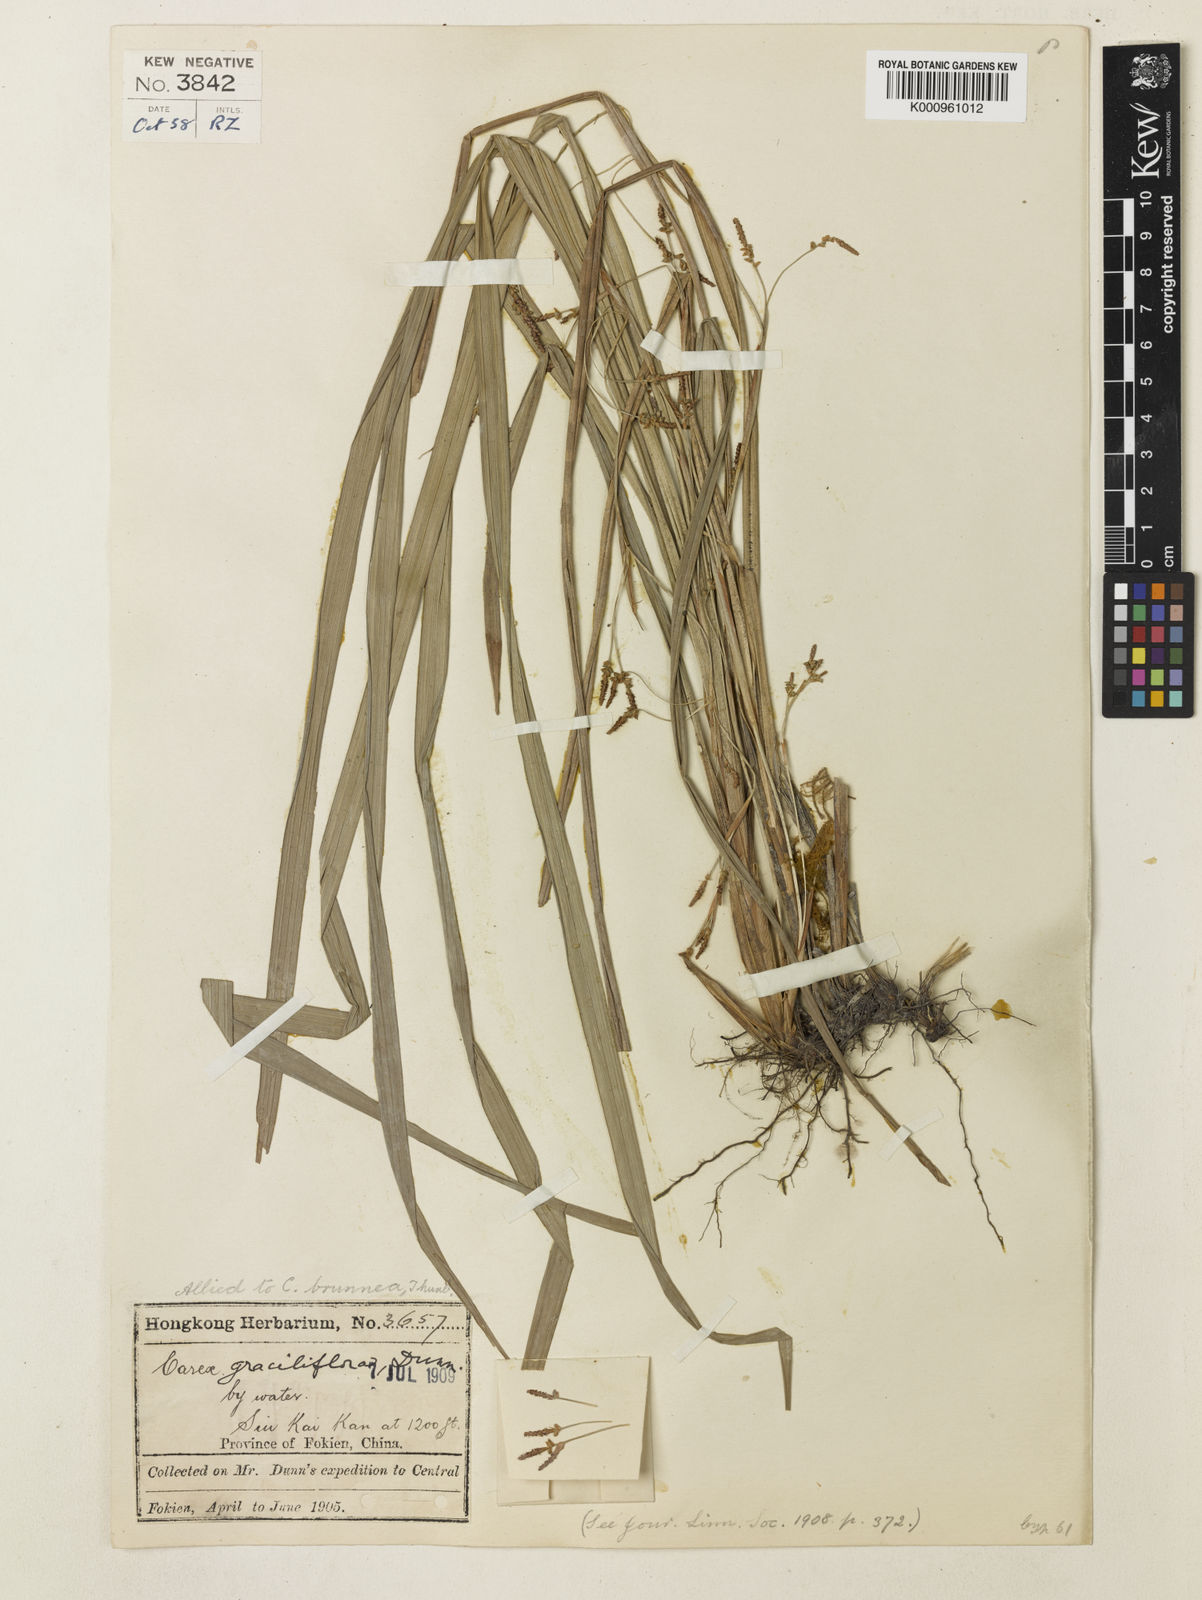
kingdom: Plantae
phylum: Tracheophyta
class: Liliopsida
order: Poales
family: Cyperaceae
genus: Carex
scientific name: Carex graciliflora
